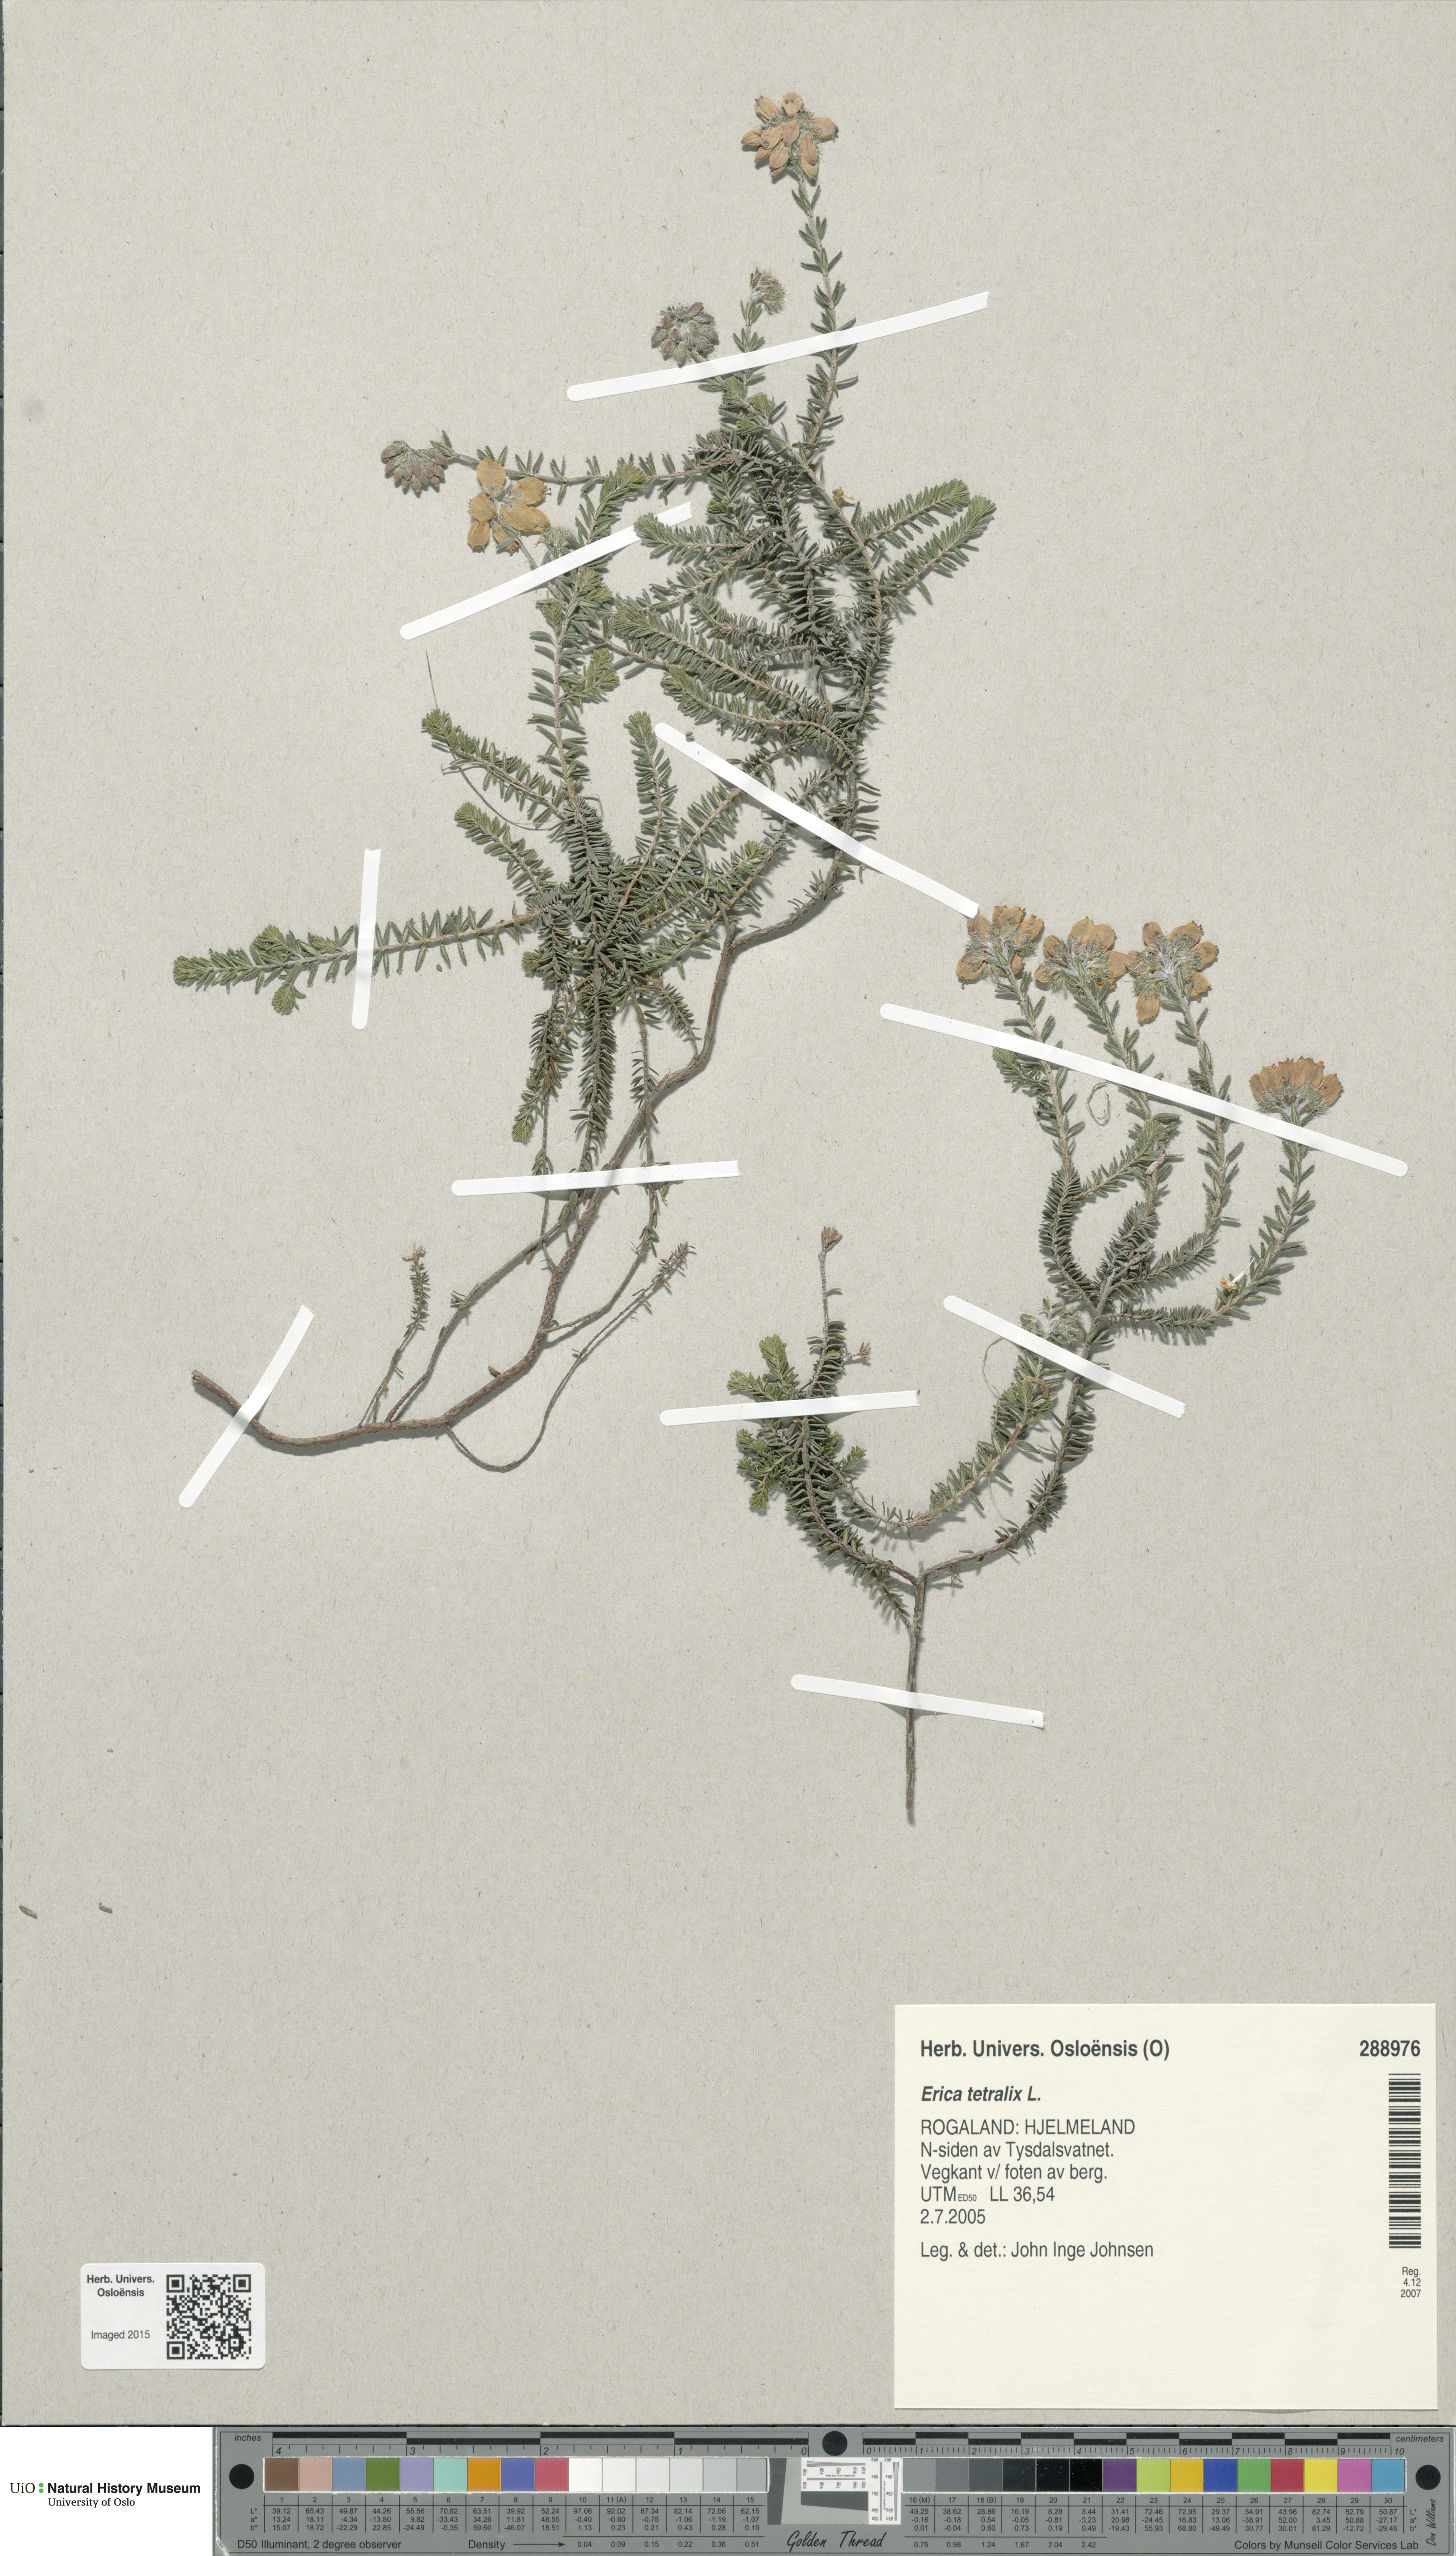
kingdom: Plantae
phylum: Tracheophyta
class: Magnoliopsida
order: Ericales
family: Ericaceae
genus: Erica
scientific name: Erica tetralix
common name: Cross-leaved heath
